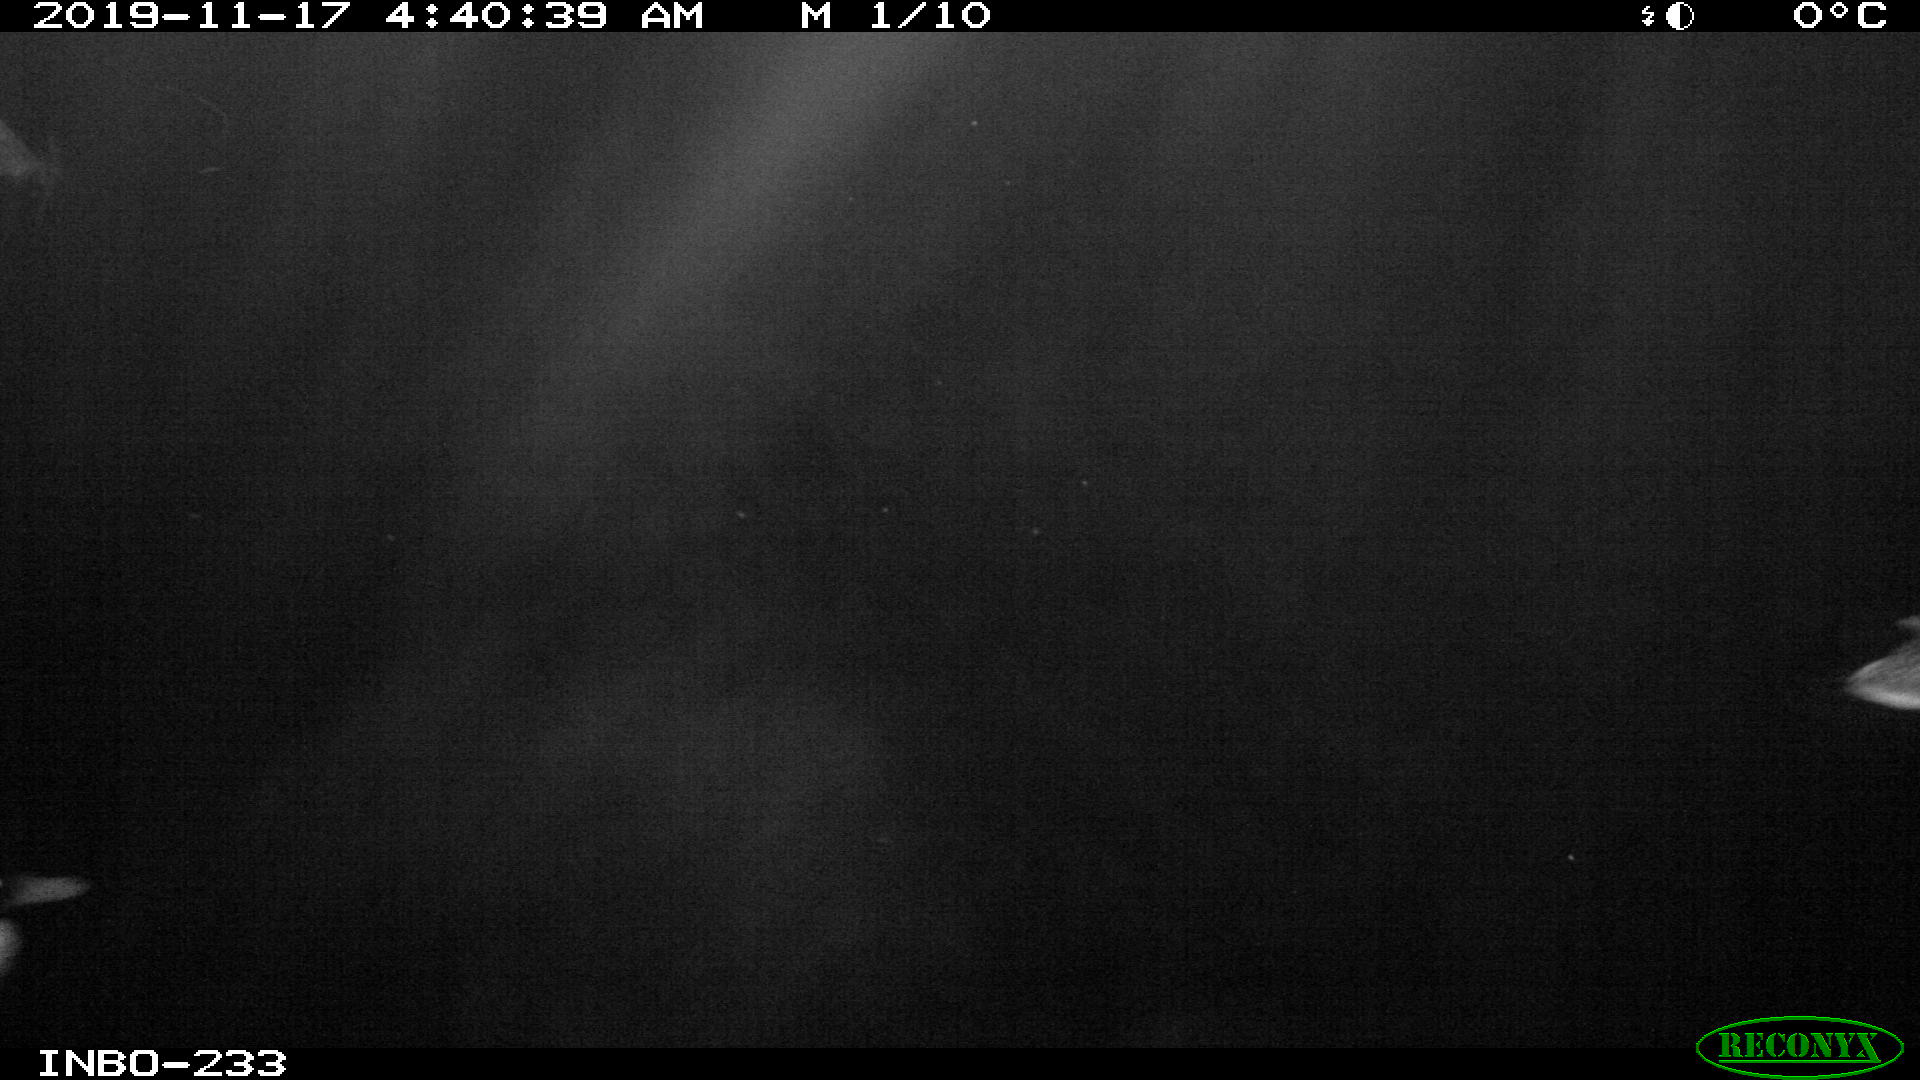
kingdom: Animalia
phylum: Chordata
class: Aves
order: Anseriformes
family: Anatidae
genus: Anas
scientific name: Anas platyrhynchos
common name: Mallard
